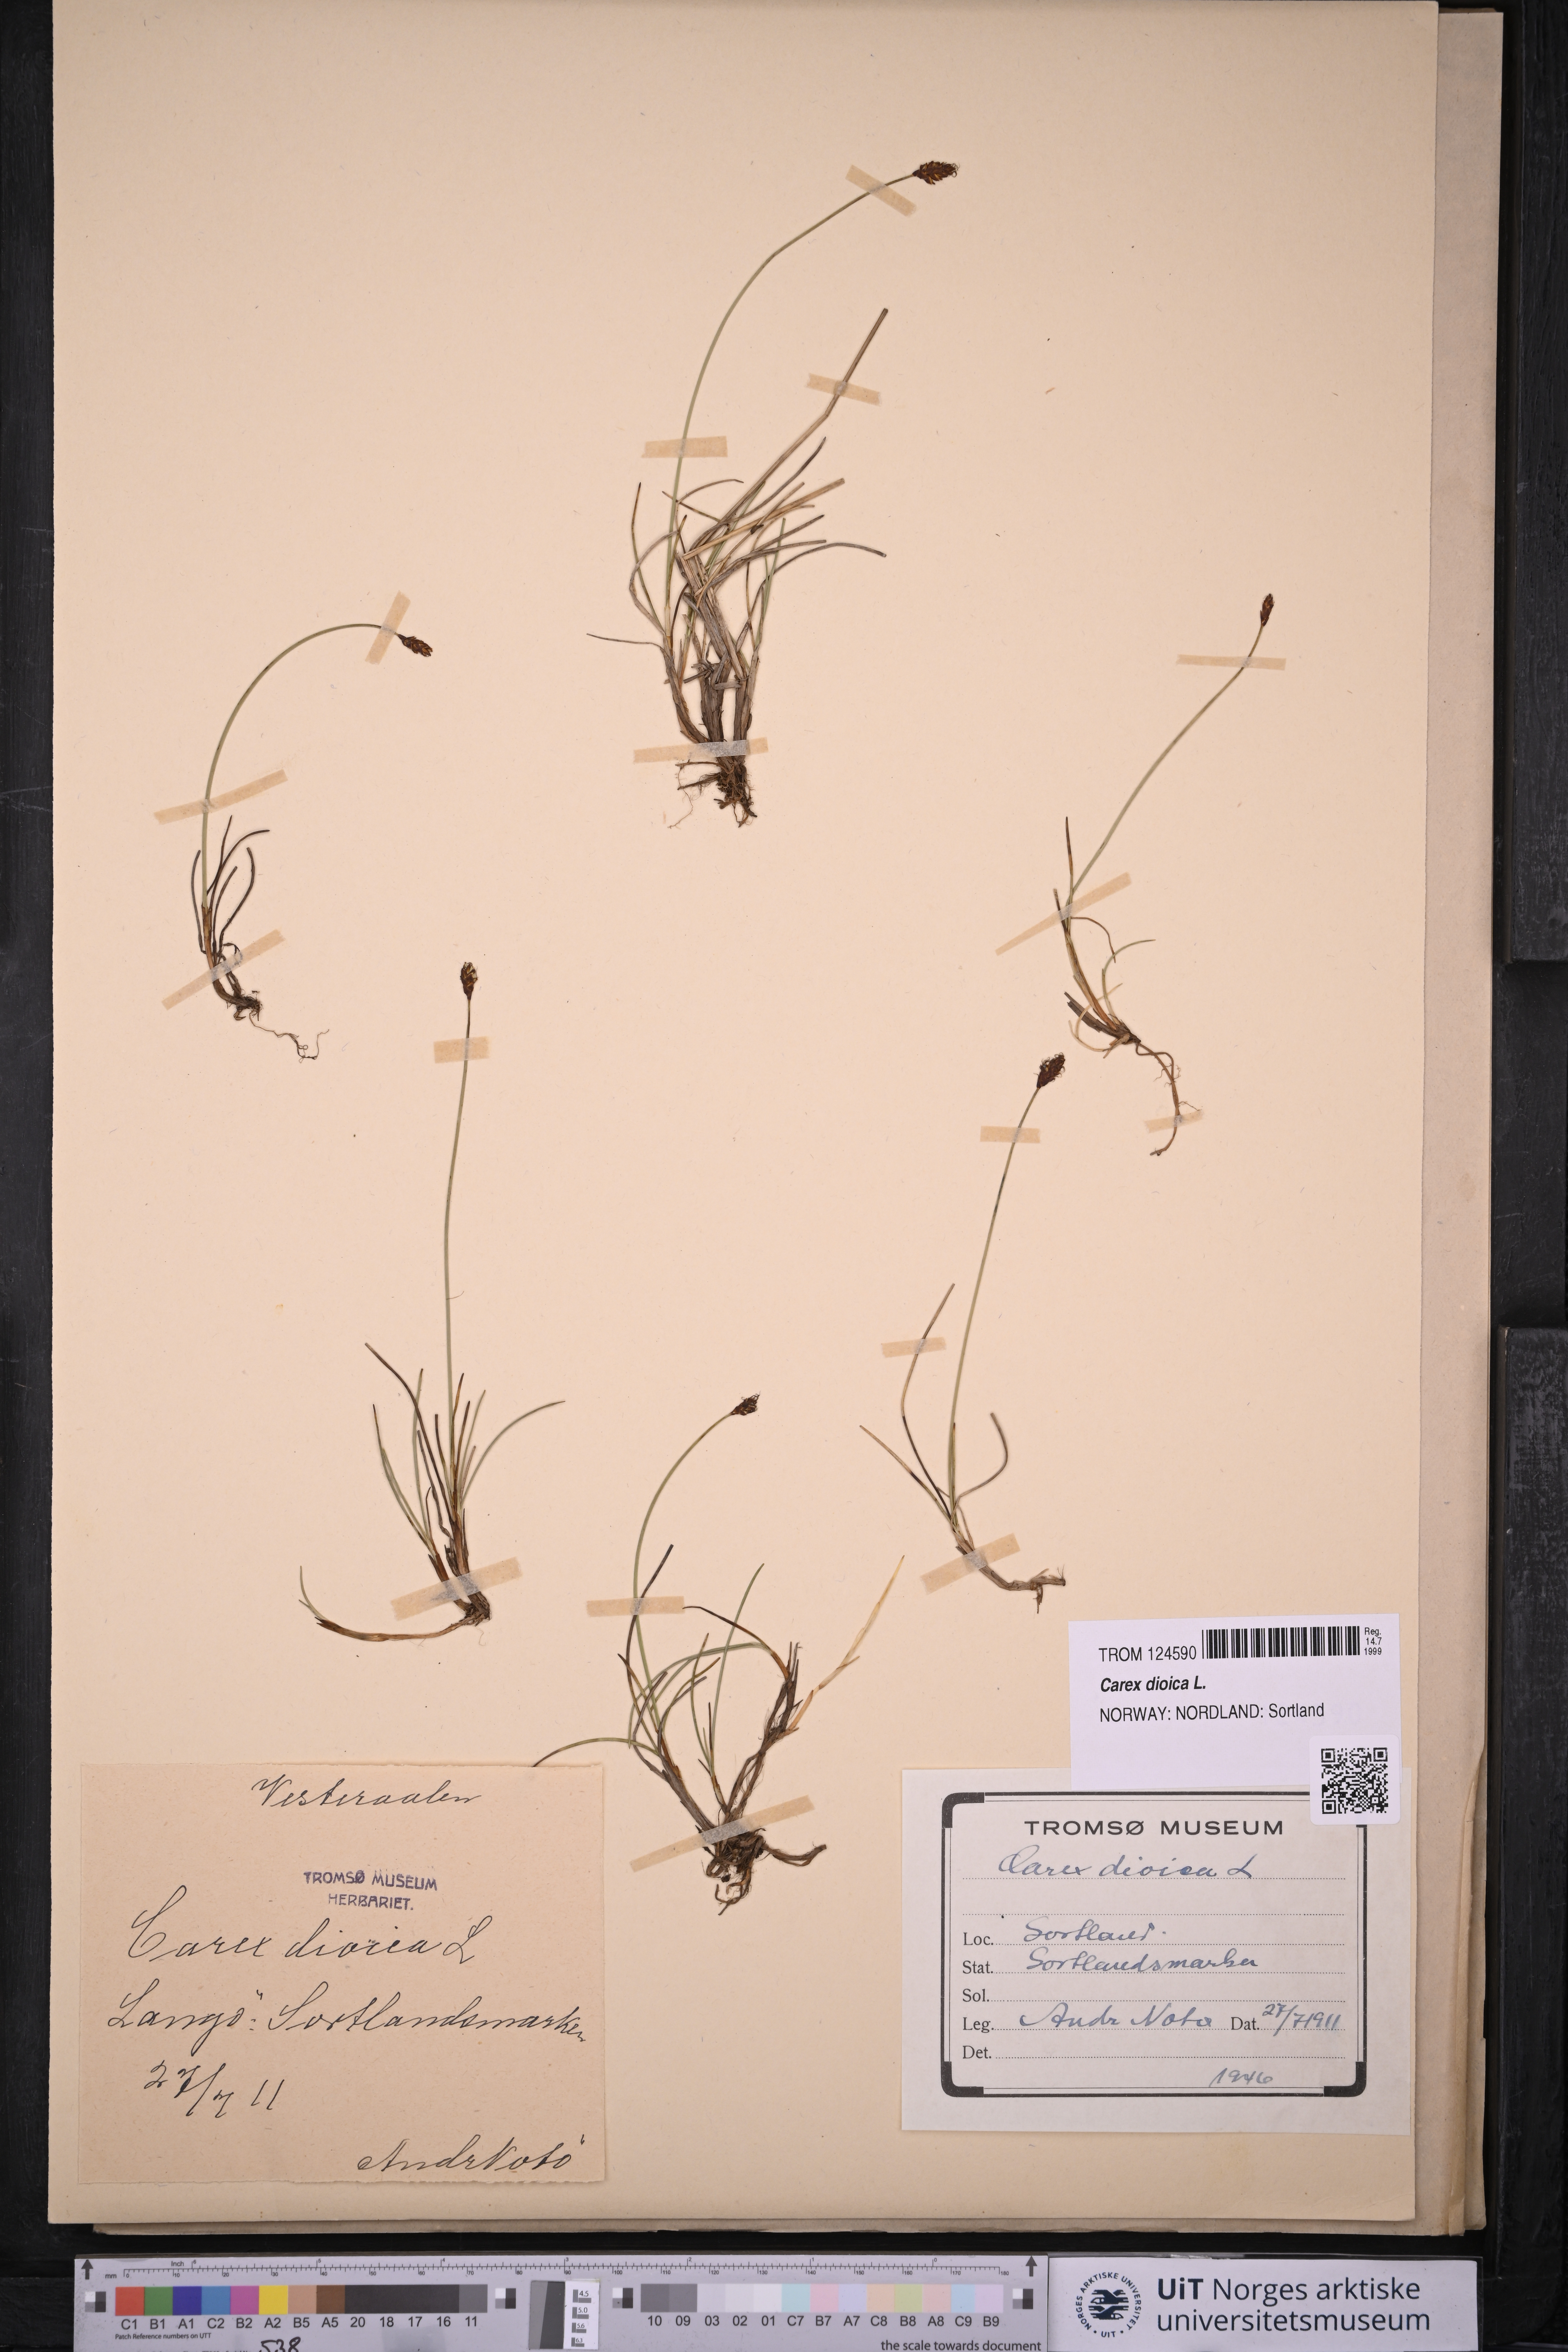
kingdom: Plantae
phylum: Tracheophyta
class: Liliopsida
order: Poales
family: Cyperaceae
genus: Carex
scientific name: Carex dioica
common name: Dioecious sedge
